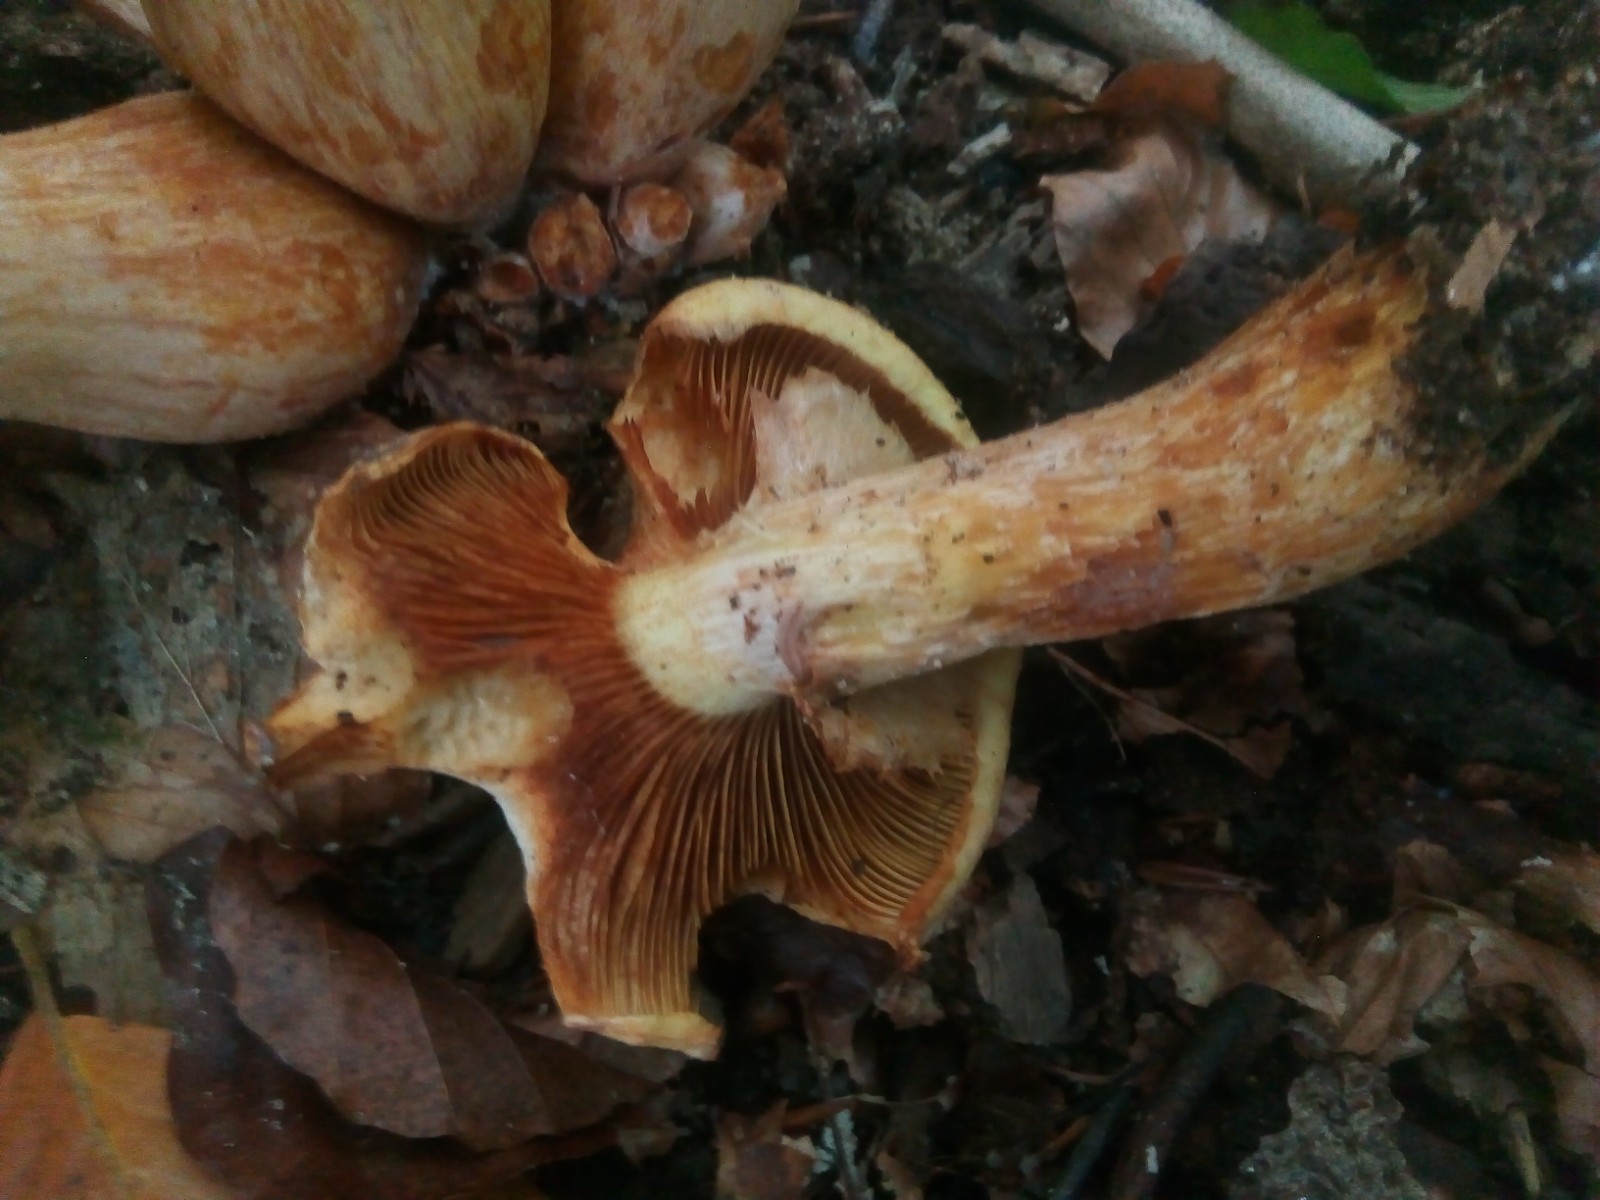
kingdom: Fungi
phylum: Basidiomycota
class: Agaricomycetes
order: Agaricales
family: Hymenogastraceae
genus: Gymnopilus
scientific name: Gymnopilus spectabilis
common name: fibret flammehat
